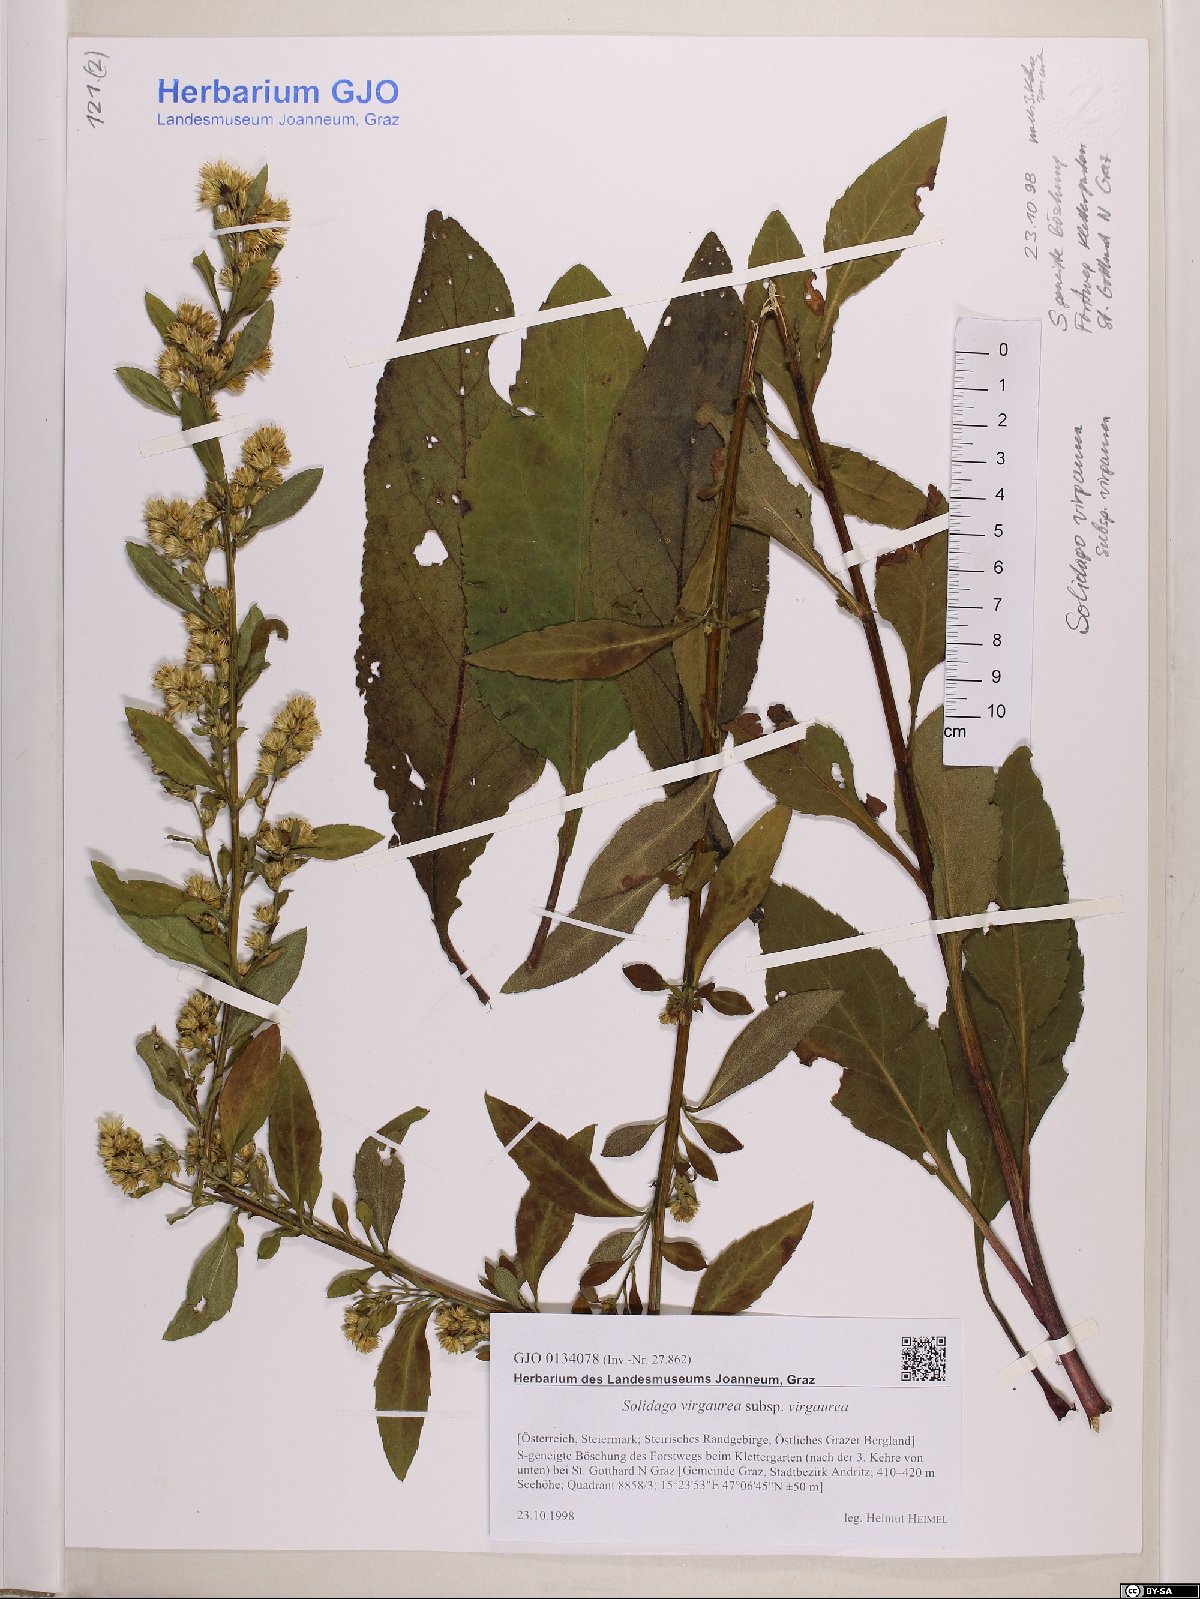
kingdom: Plantae
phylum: Tracheophyta
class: Magnoliopsida
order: Asterales
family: Asteraceae
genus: Solidago
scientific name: Solidago virgaurea
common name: Goldenrod
